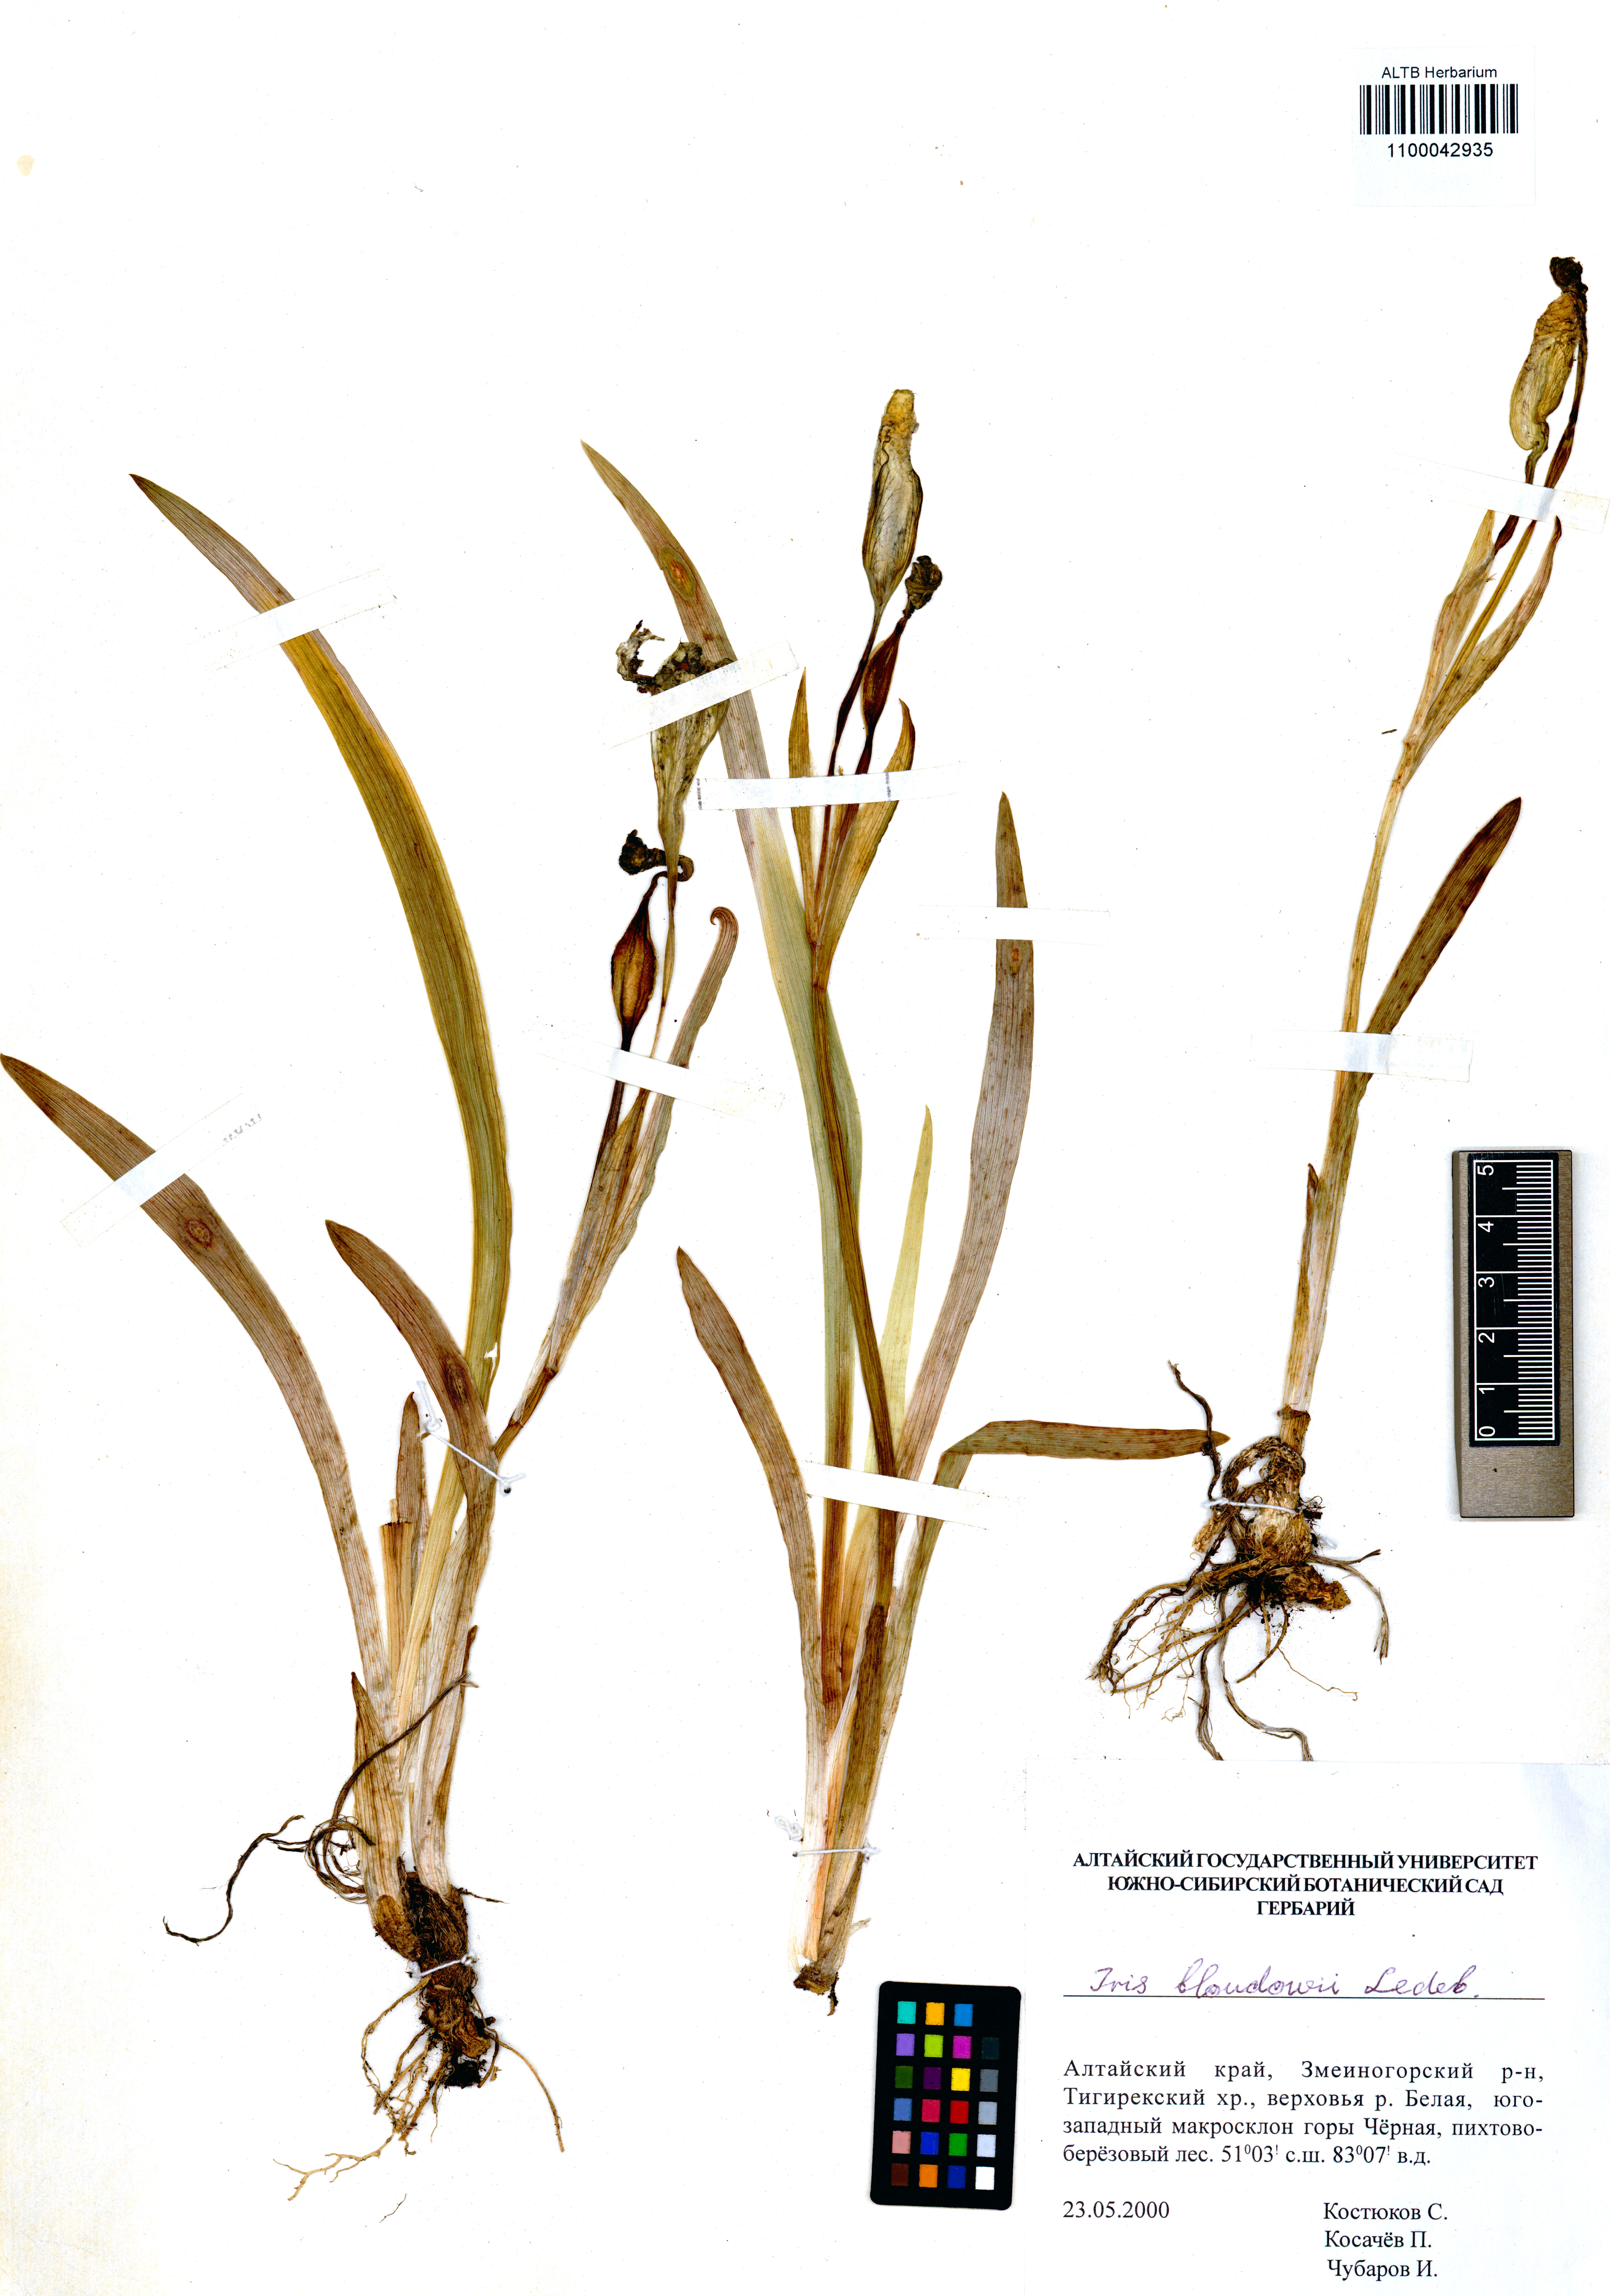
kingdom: Plantae
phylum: Tracheophyta
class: Liliopsida
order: Asparagales
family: Iridaceae
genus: Iris
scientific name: Iris bloudowii
